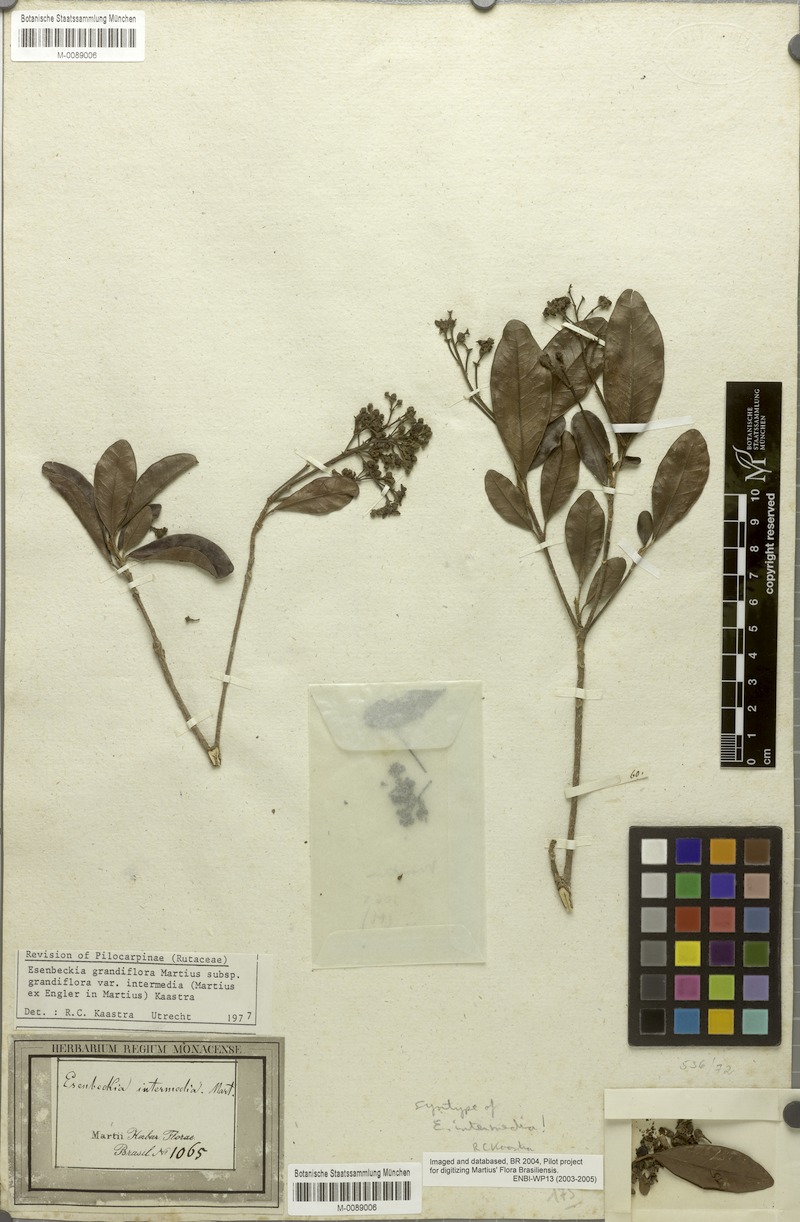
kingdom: Plantae
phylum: Tracheophyta
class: Magnoliopsida
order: Sapindales
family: Rutaceae
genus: Esenbeckia
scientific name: Esenbeckia grandiflora
